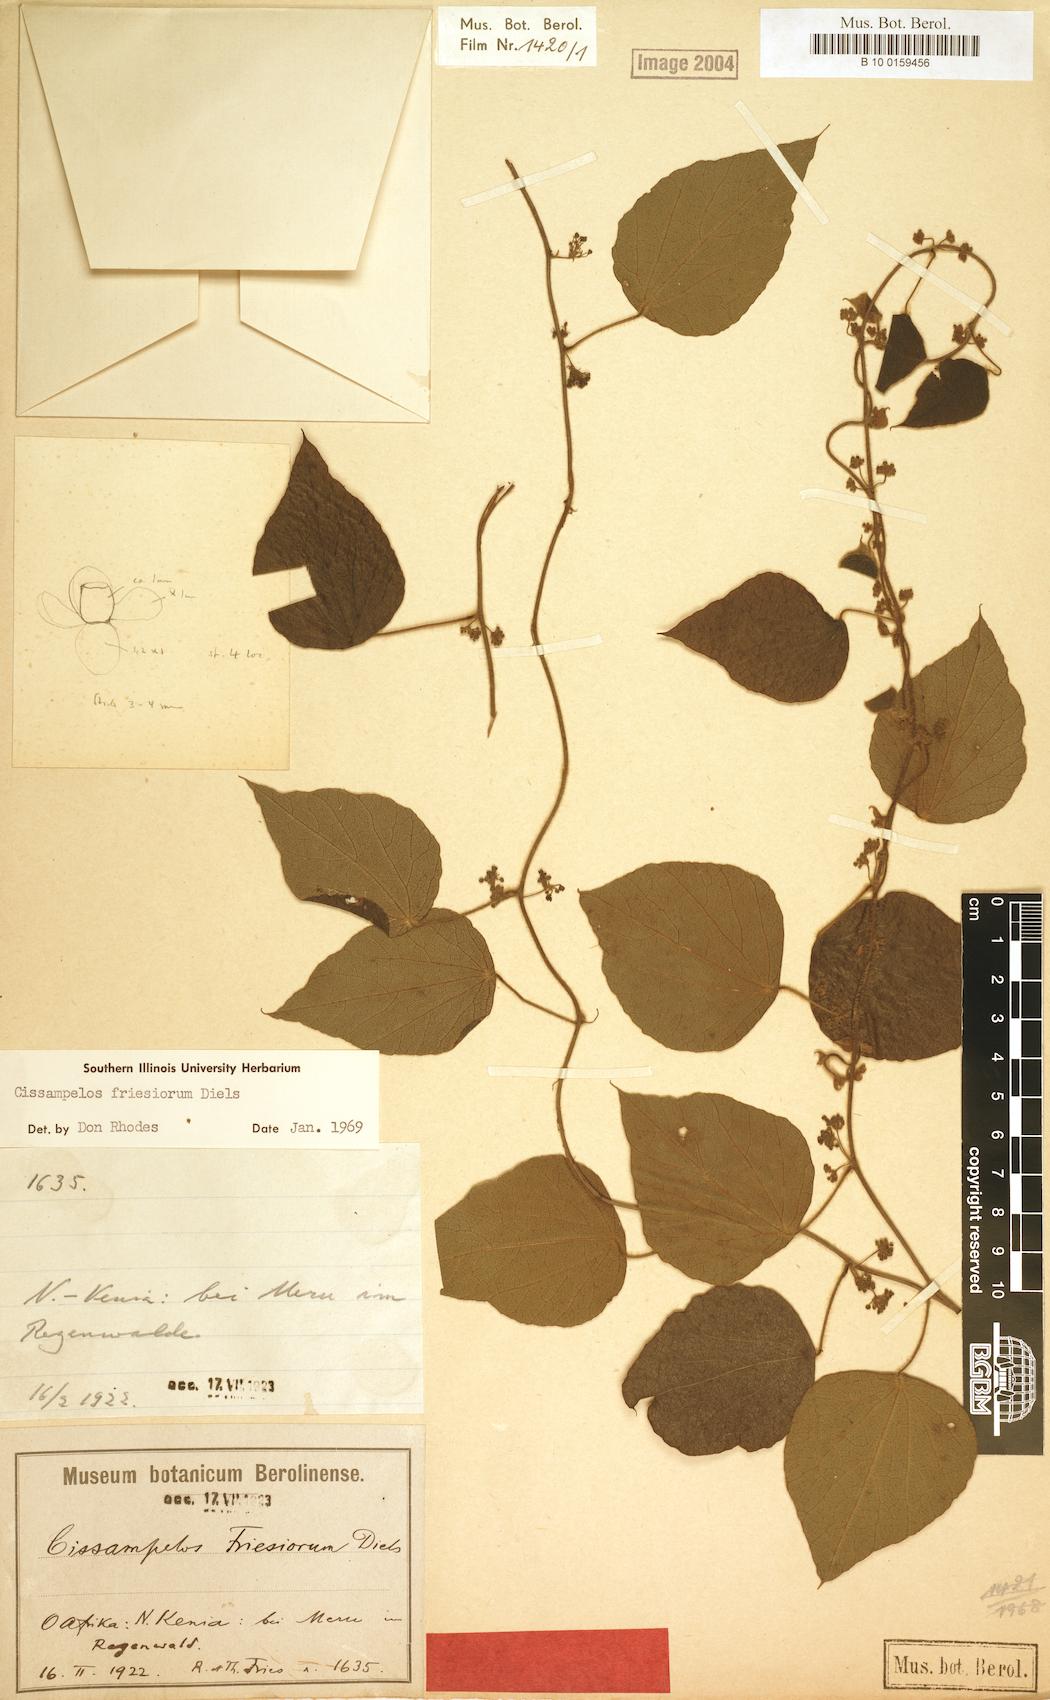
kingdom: Plantae
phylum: Tracheophyta
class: Magnoliopsida
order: Ranunculales
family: Menispermaceae
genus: Cissampelos
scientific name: Cissampelos friesiorum
